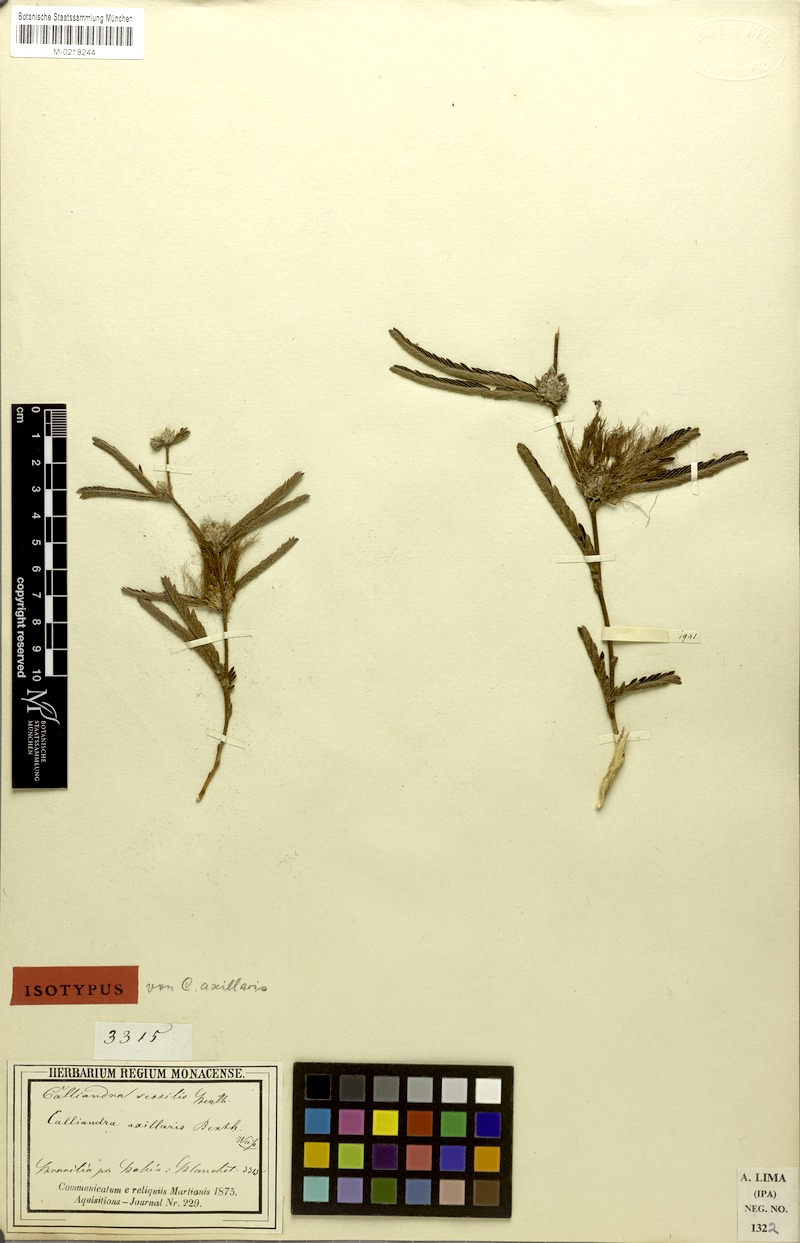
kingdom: Plantae
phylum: Tracheophyta
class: Magnoliopsida
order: Fabales
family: Fabaceae
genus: Calliandra
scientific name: Calliandra sessilis
